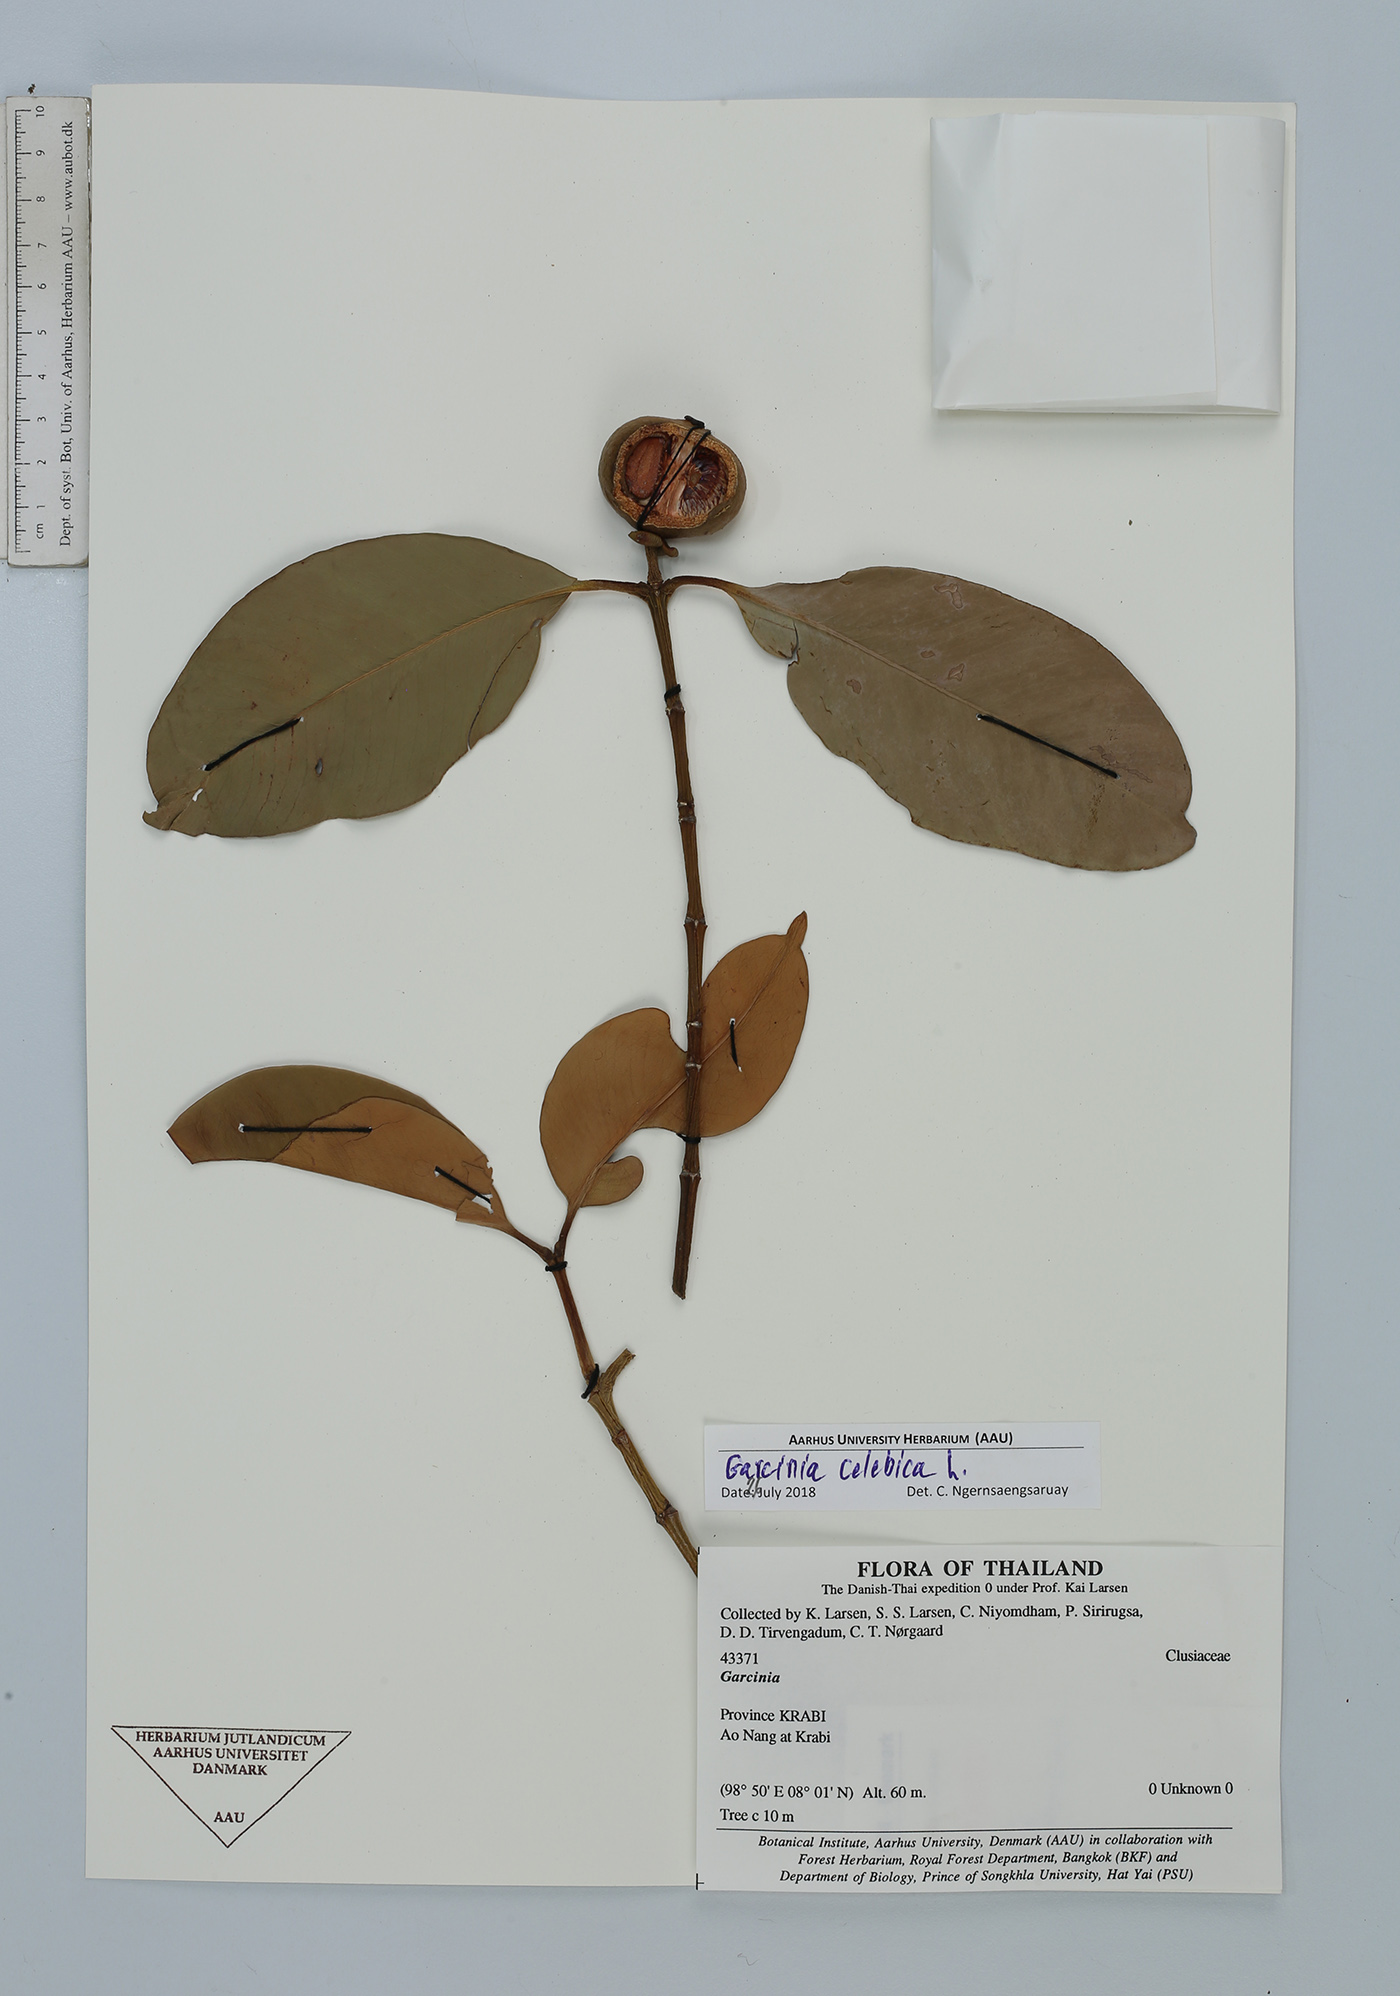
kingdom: Plantae
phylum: Tracheophyta
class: Magnoliopsida
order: Malpighiales
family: Clusiaceae
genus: Garcinia
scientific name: Garcinia celebica
